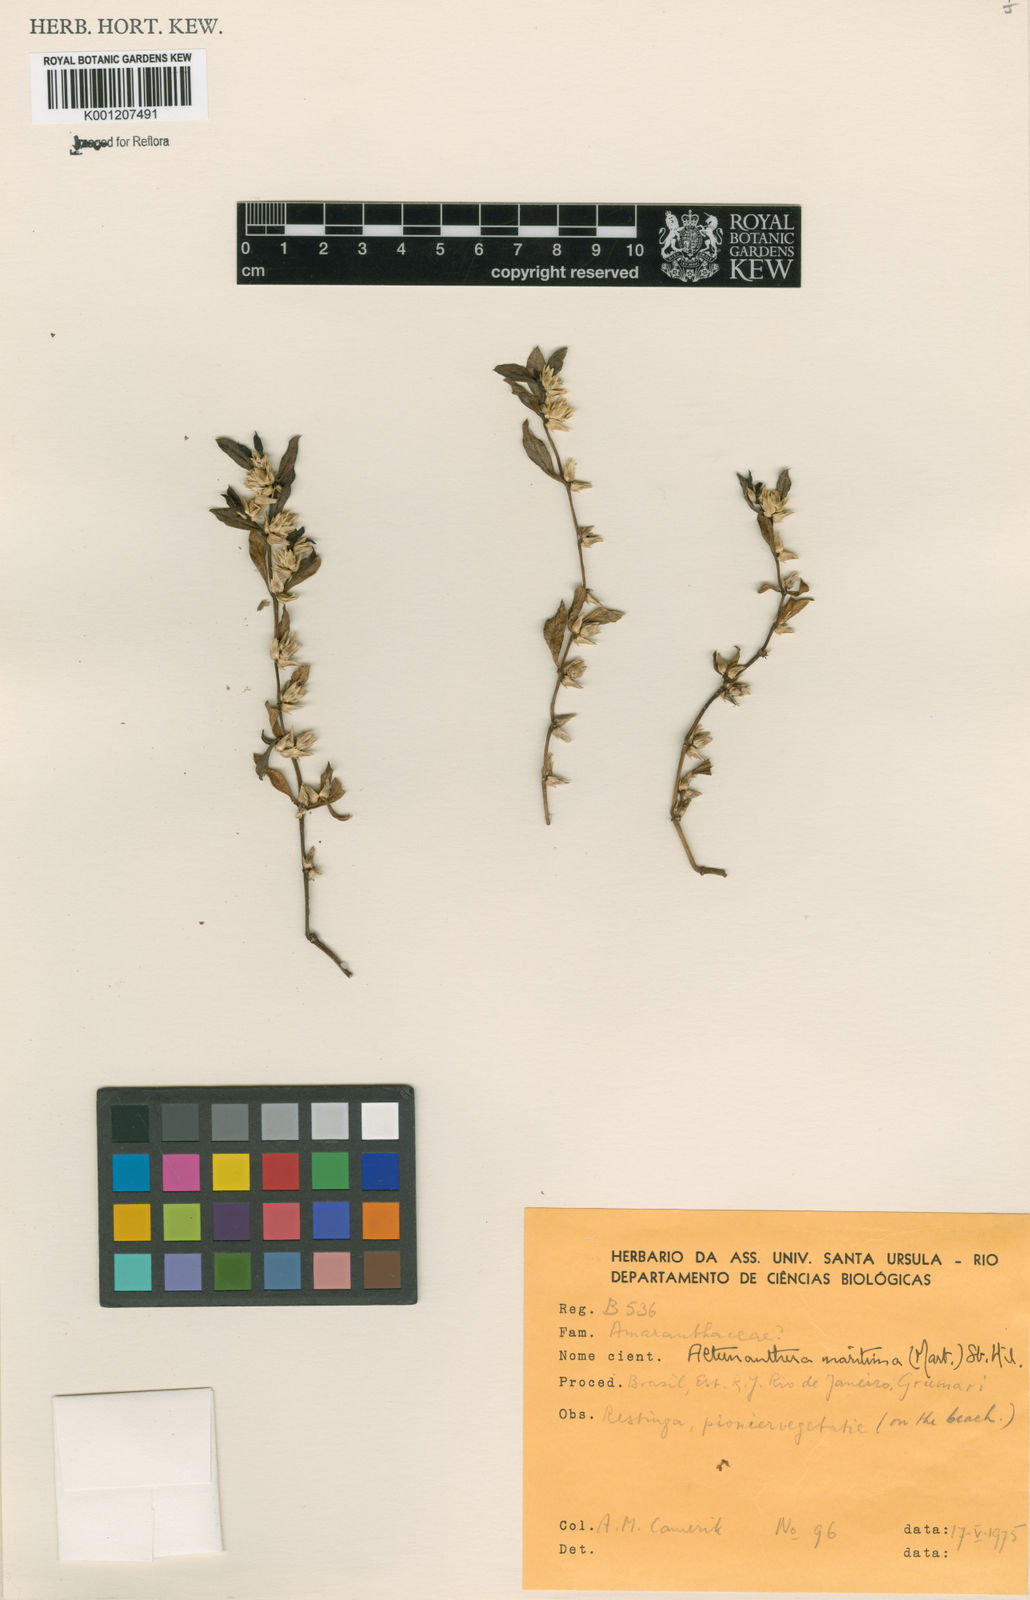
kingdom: Plantae
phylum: Tracheophyta
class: Magnoliopsida
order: Caryophyllales
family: Amaranthaceae
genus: Alternanthera
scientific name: Alternanthera littoralis
